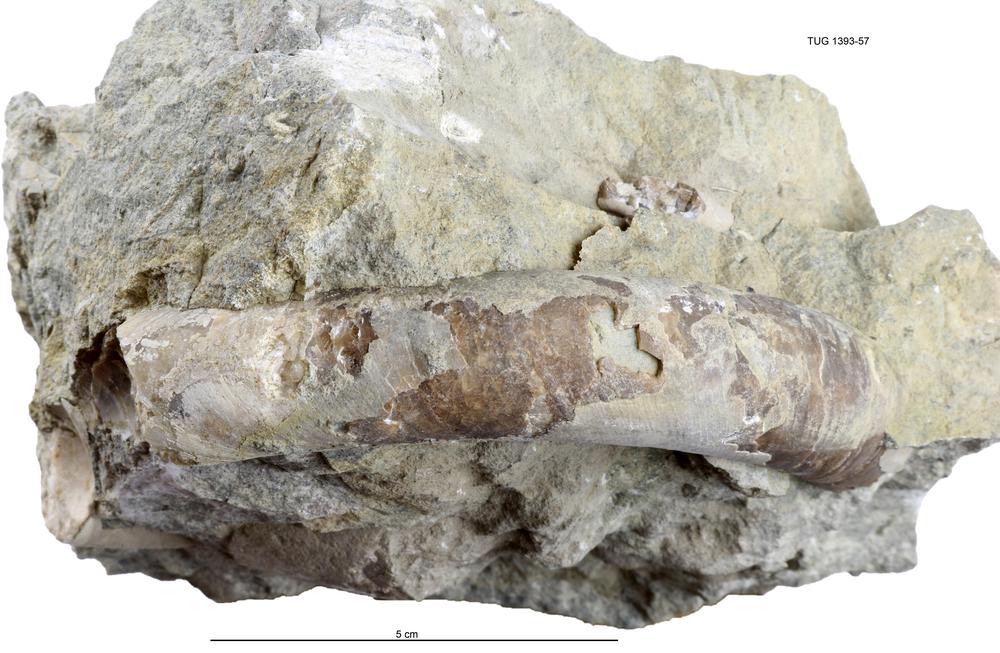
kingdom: Animalia
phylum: Mollusca
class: Cephalopoda
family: Estonioceratidae
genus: Tragoceras
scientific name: Tragoceras
